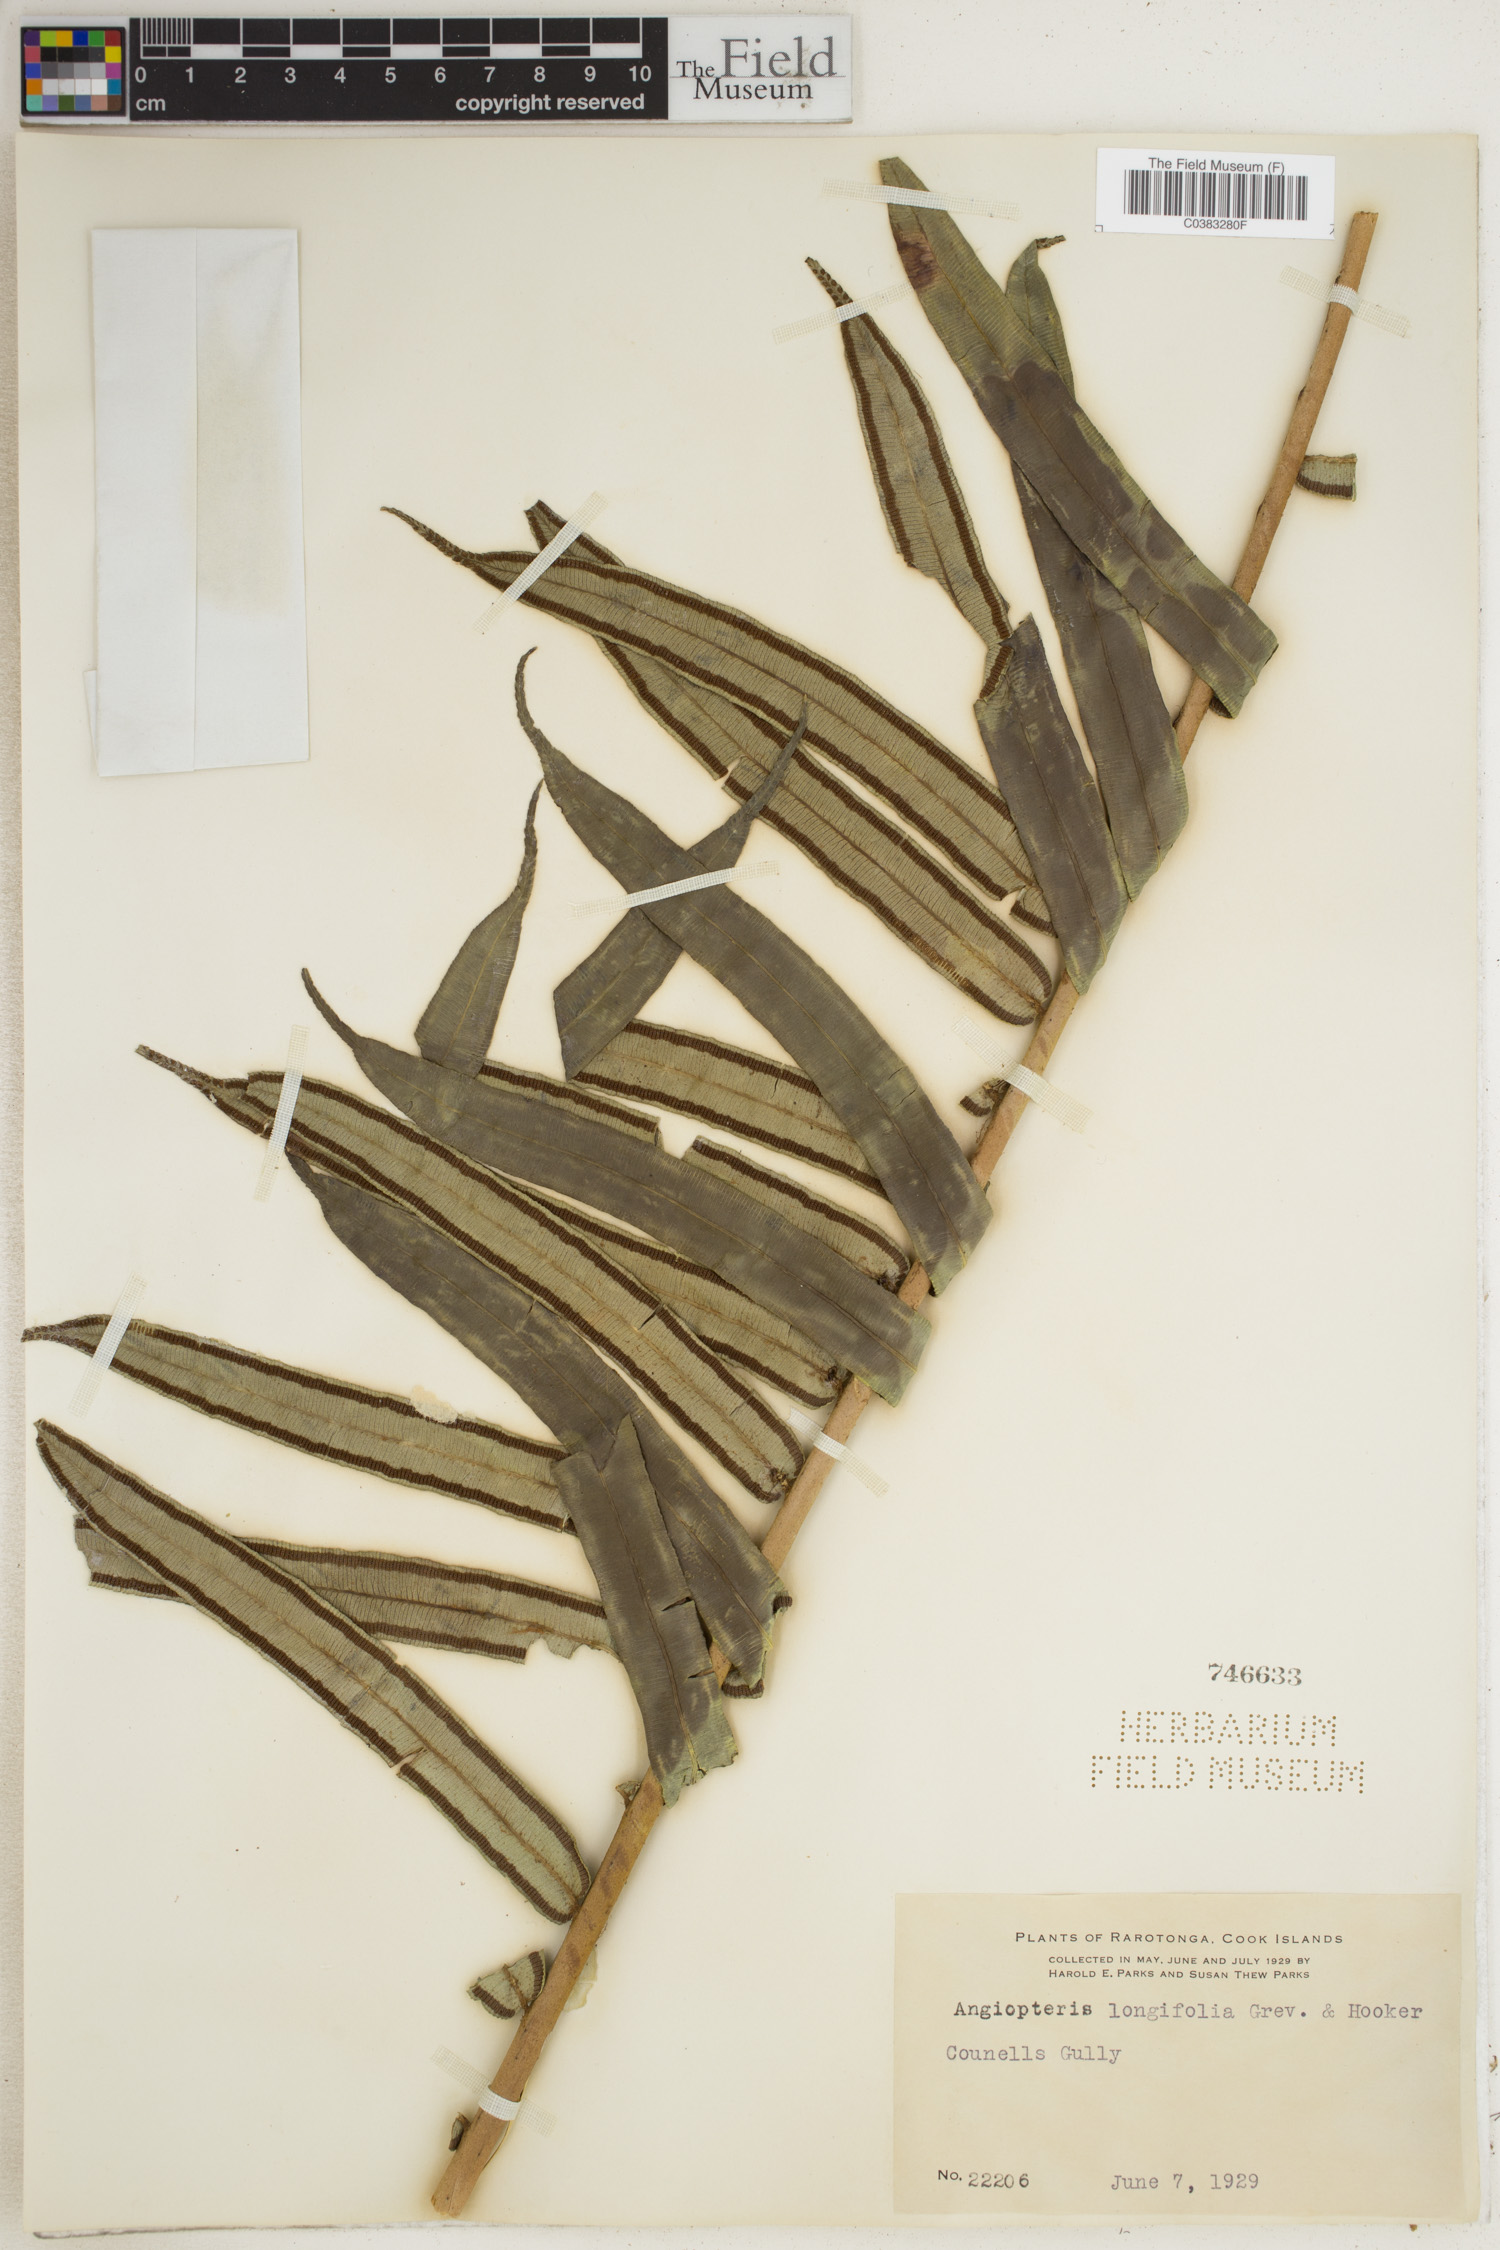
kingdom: Plantae
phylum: Tracheophyta
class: Polypodiopsida
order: Marattiales
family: Marattiaceae
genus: Angiopteris
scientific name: Angiopteris evecta
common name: Mule's-foot fern
